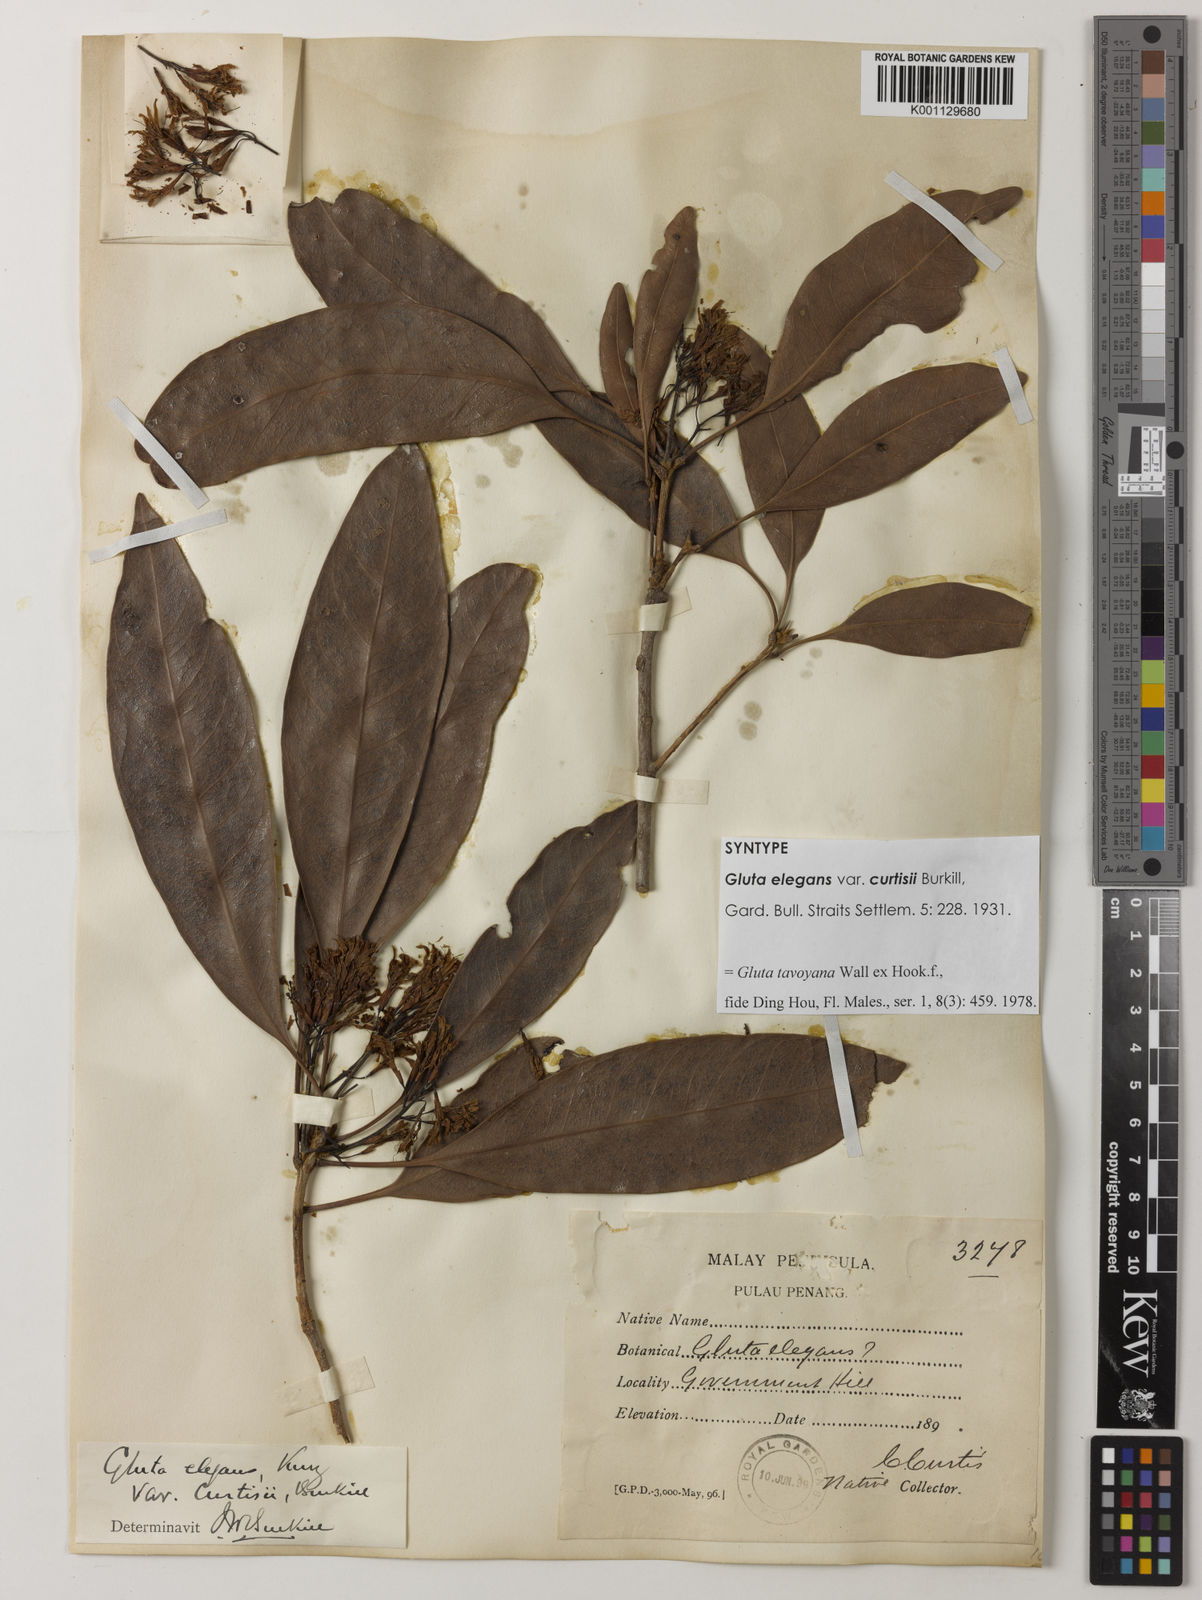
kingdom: Plantae
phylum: Tracheophyta
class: Magnoliopsida
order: Sapindales
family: Anacardiaceae
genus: Gluta
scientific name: Gluta tavoyana
